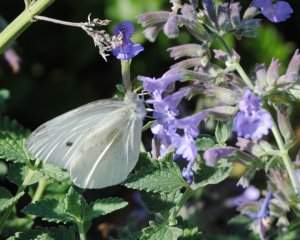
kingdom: Animalia
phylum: Arthropoda
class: Insecta
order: Lepidoptera
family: Pieridae
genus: Pieris
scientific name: Pieris rapae
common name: Cabbage White
